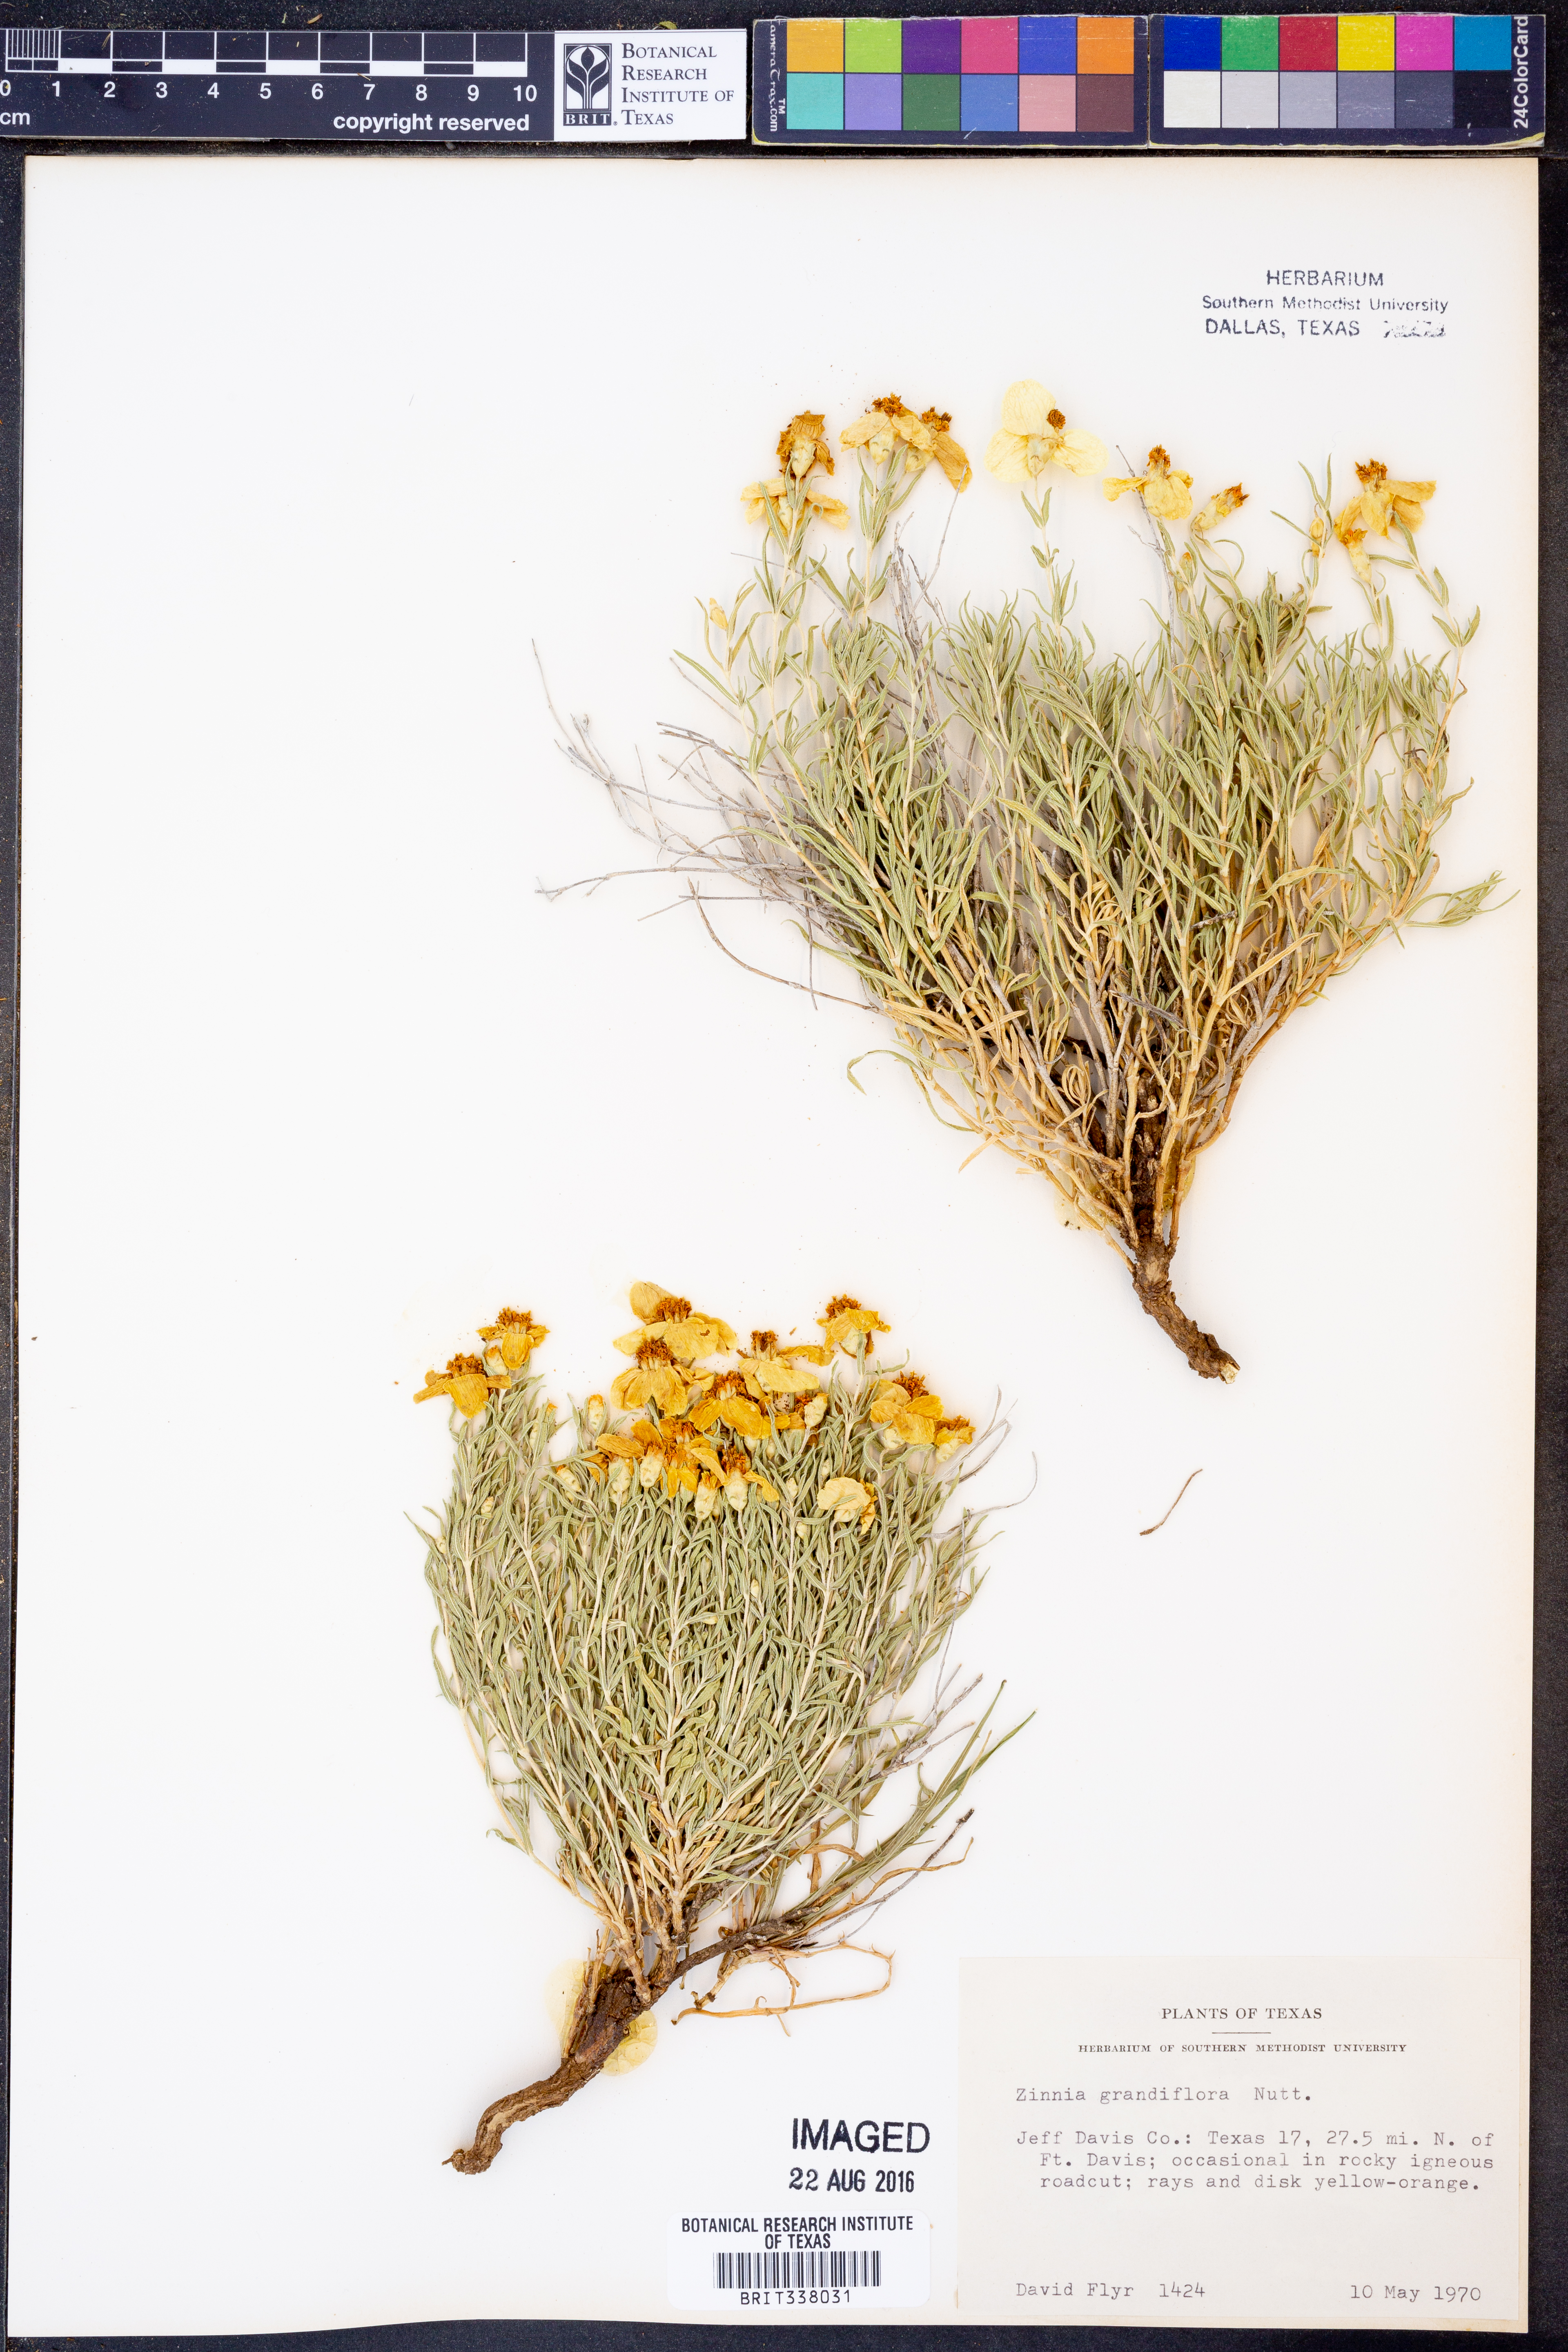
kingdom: Plantae
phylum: Tracheophyta
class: Magnoliopsida
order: Asterales
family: Asteraceae
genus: Zinnia
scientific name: Zinnia grandiflora
